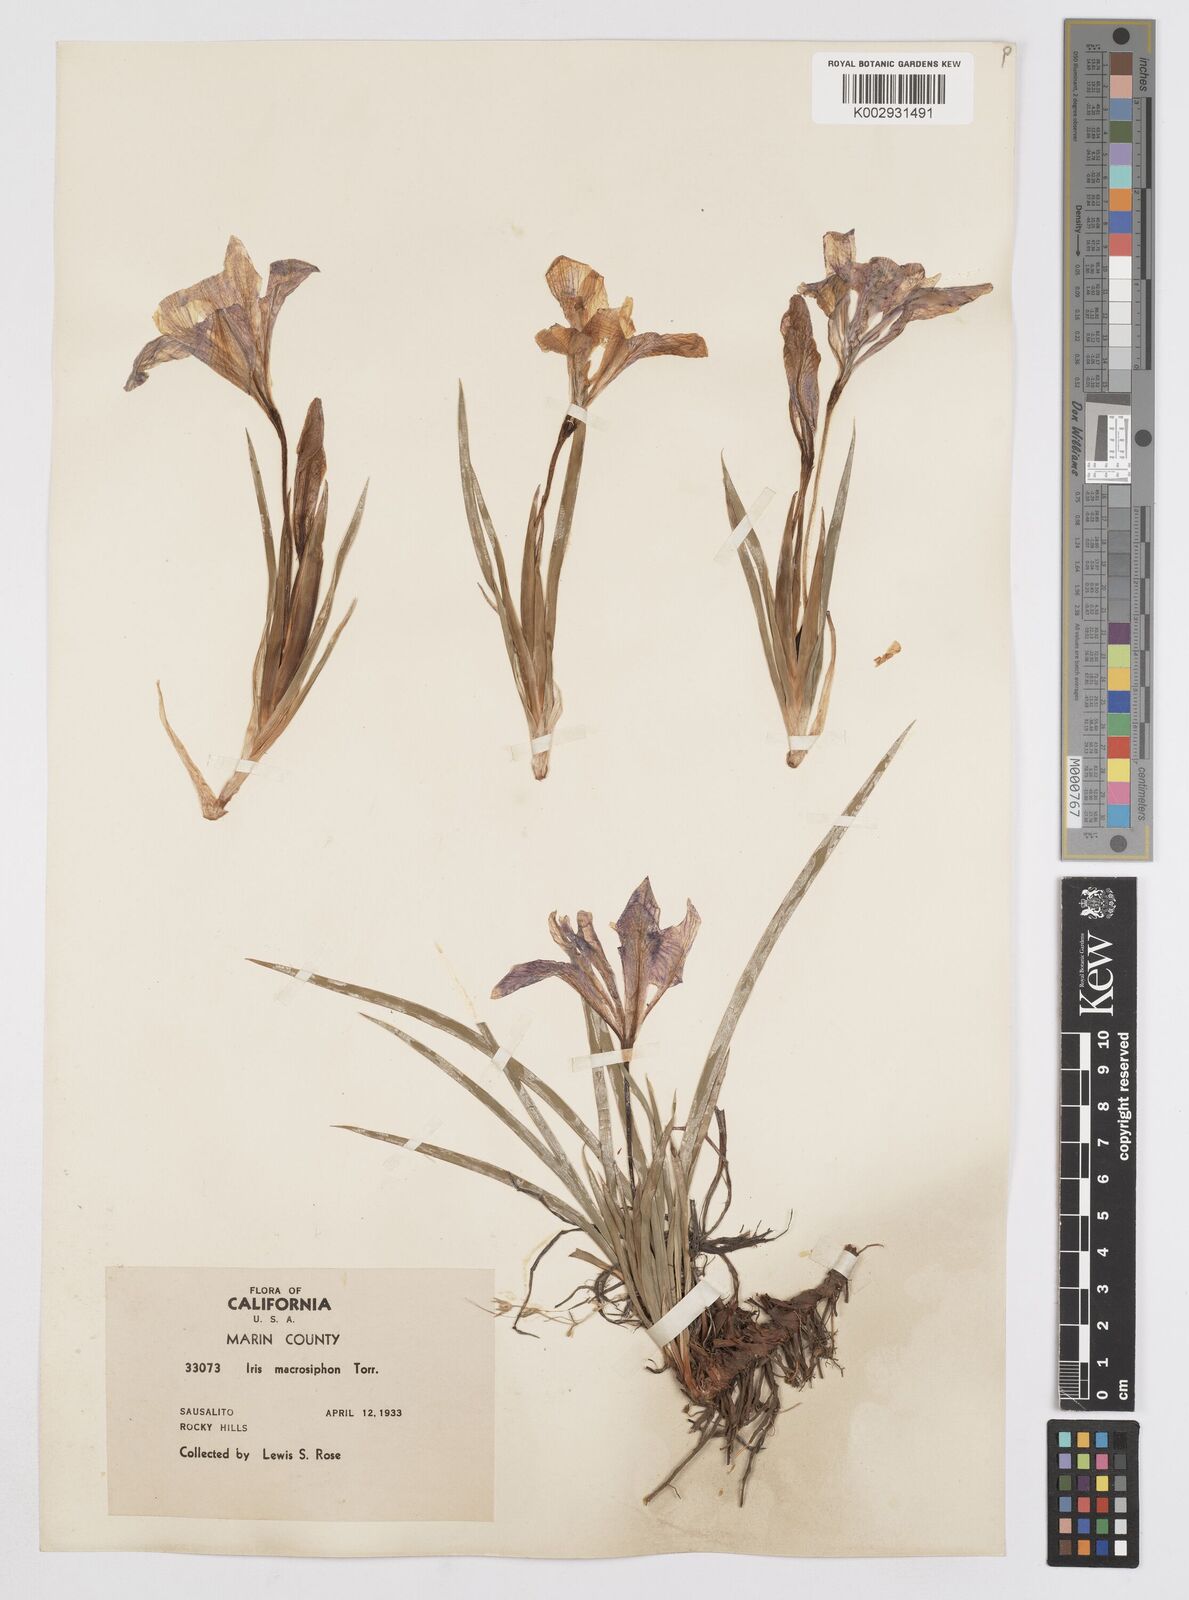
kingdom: Plantae
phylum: Tracheophyta
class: Liliopsida
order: Asparagales
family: Iridaceae
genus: Iris
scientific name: Iris macrosiphon
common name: Ground iris
